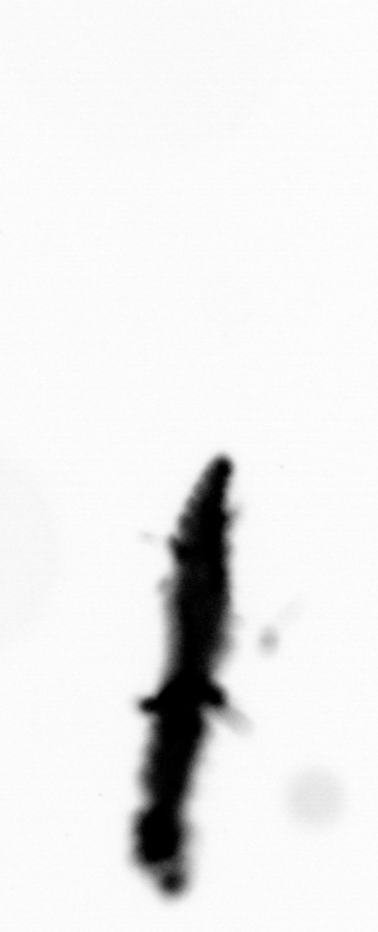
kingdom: Animalia
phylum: Annelida
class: Polychaeta
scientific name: Polychaeta
